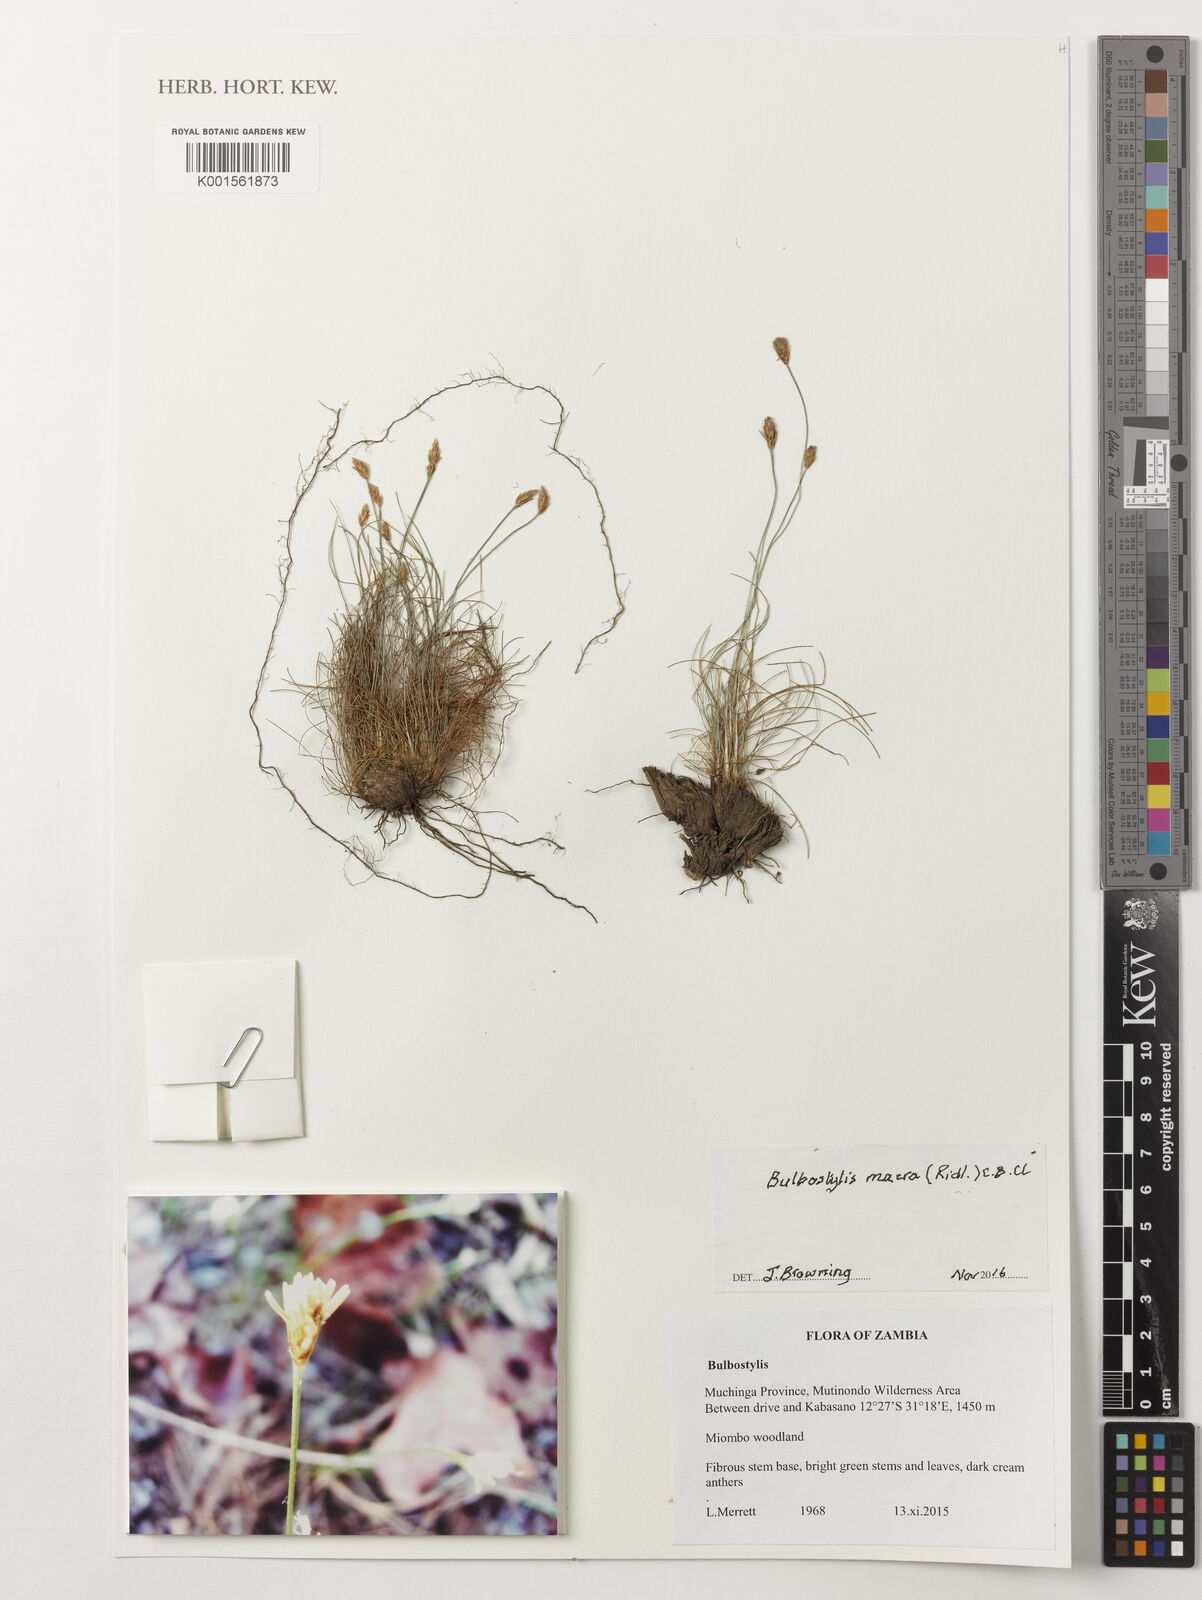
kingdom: Plantae
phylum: Tracheophyta
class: Liliopsida
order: Poales
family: Cyperaceae
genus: Bulbostylis
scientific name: Bulbostylis macra
